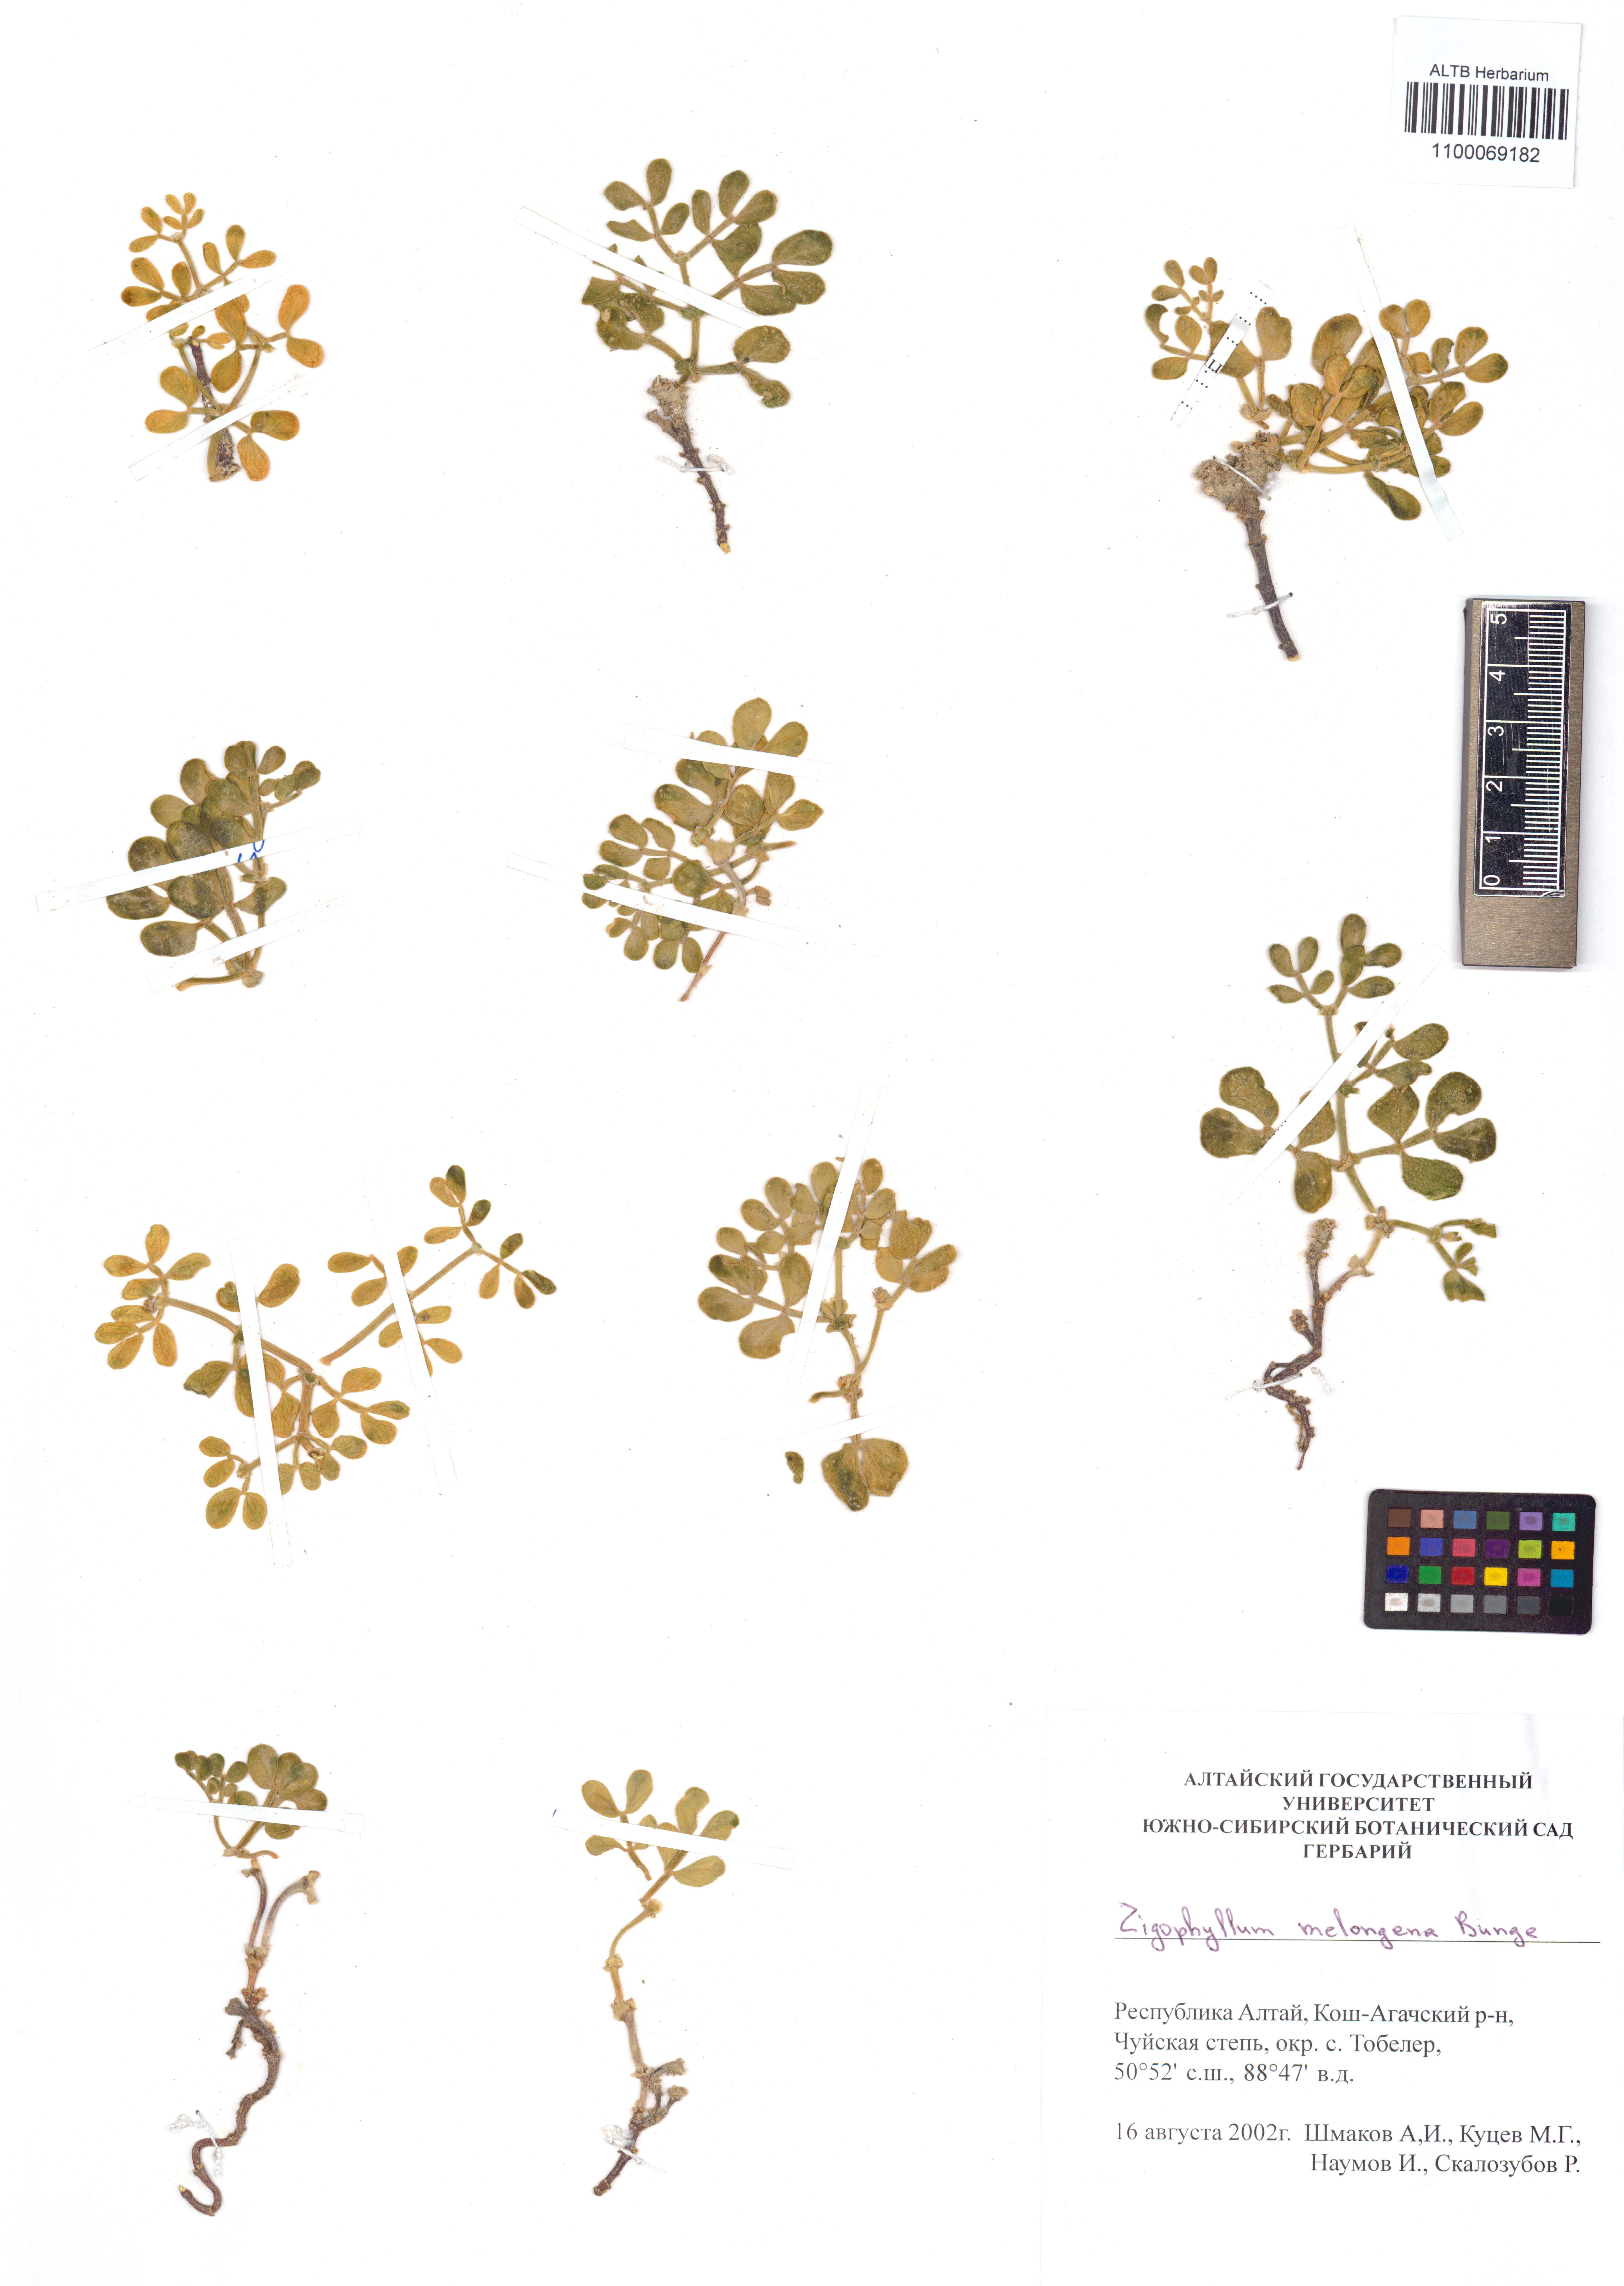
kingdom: Plantae
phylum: Tracheophyta
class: Magnoliopsida
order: Zygophyllales
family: Zygophyllaceae
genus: Zygophyllum
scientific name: Zygophyllum melongena
